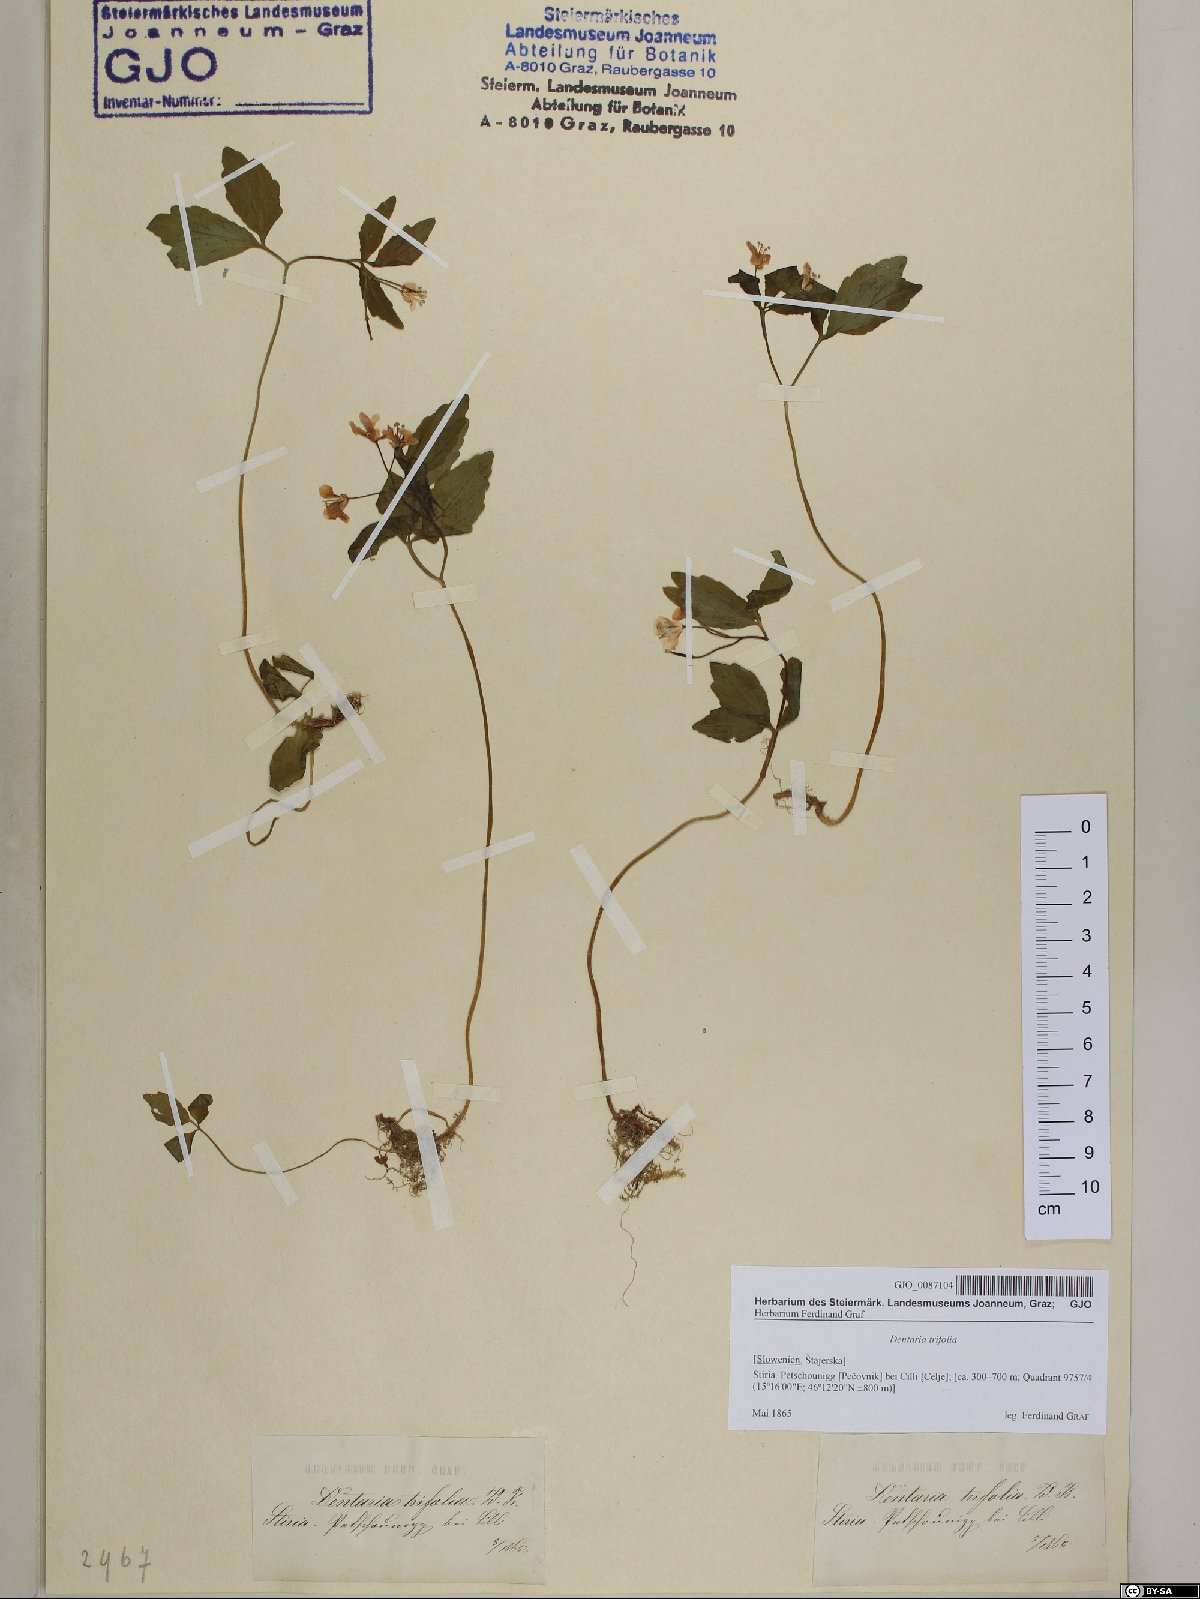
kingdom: Plantae
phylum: Tracheophyta
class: Magnoliopsida
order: Brassicales
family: Brassicaceae
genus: Cardamine
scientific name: Cardamine waldsteinii
